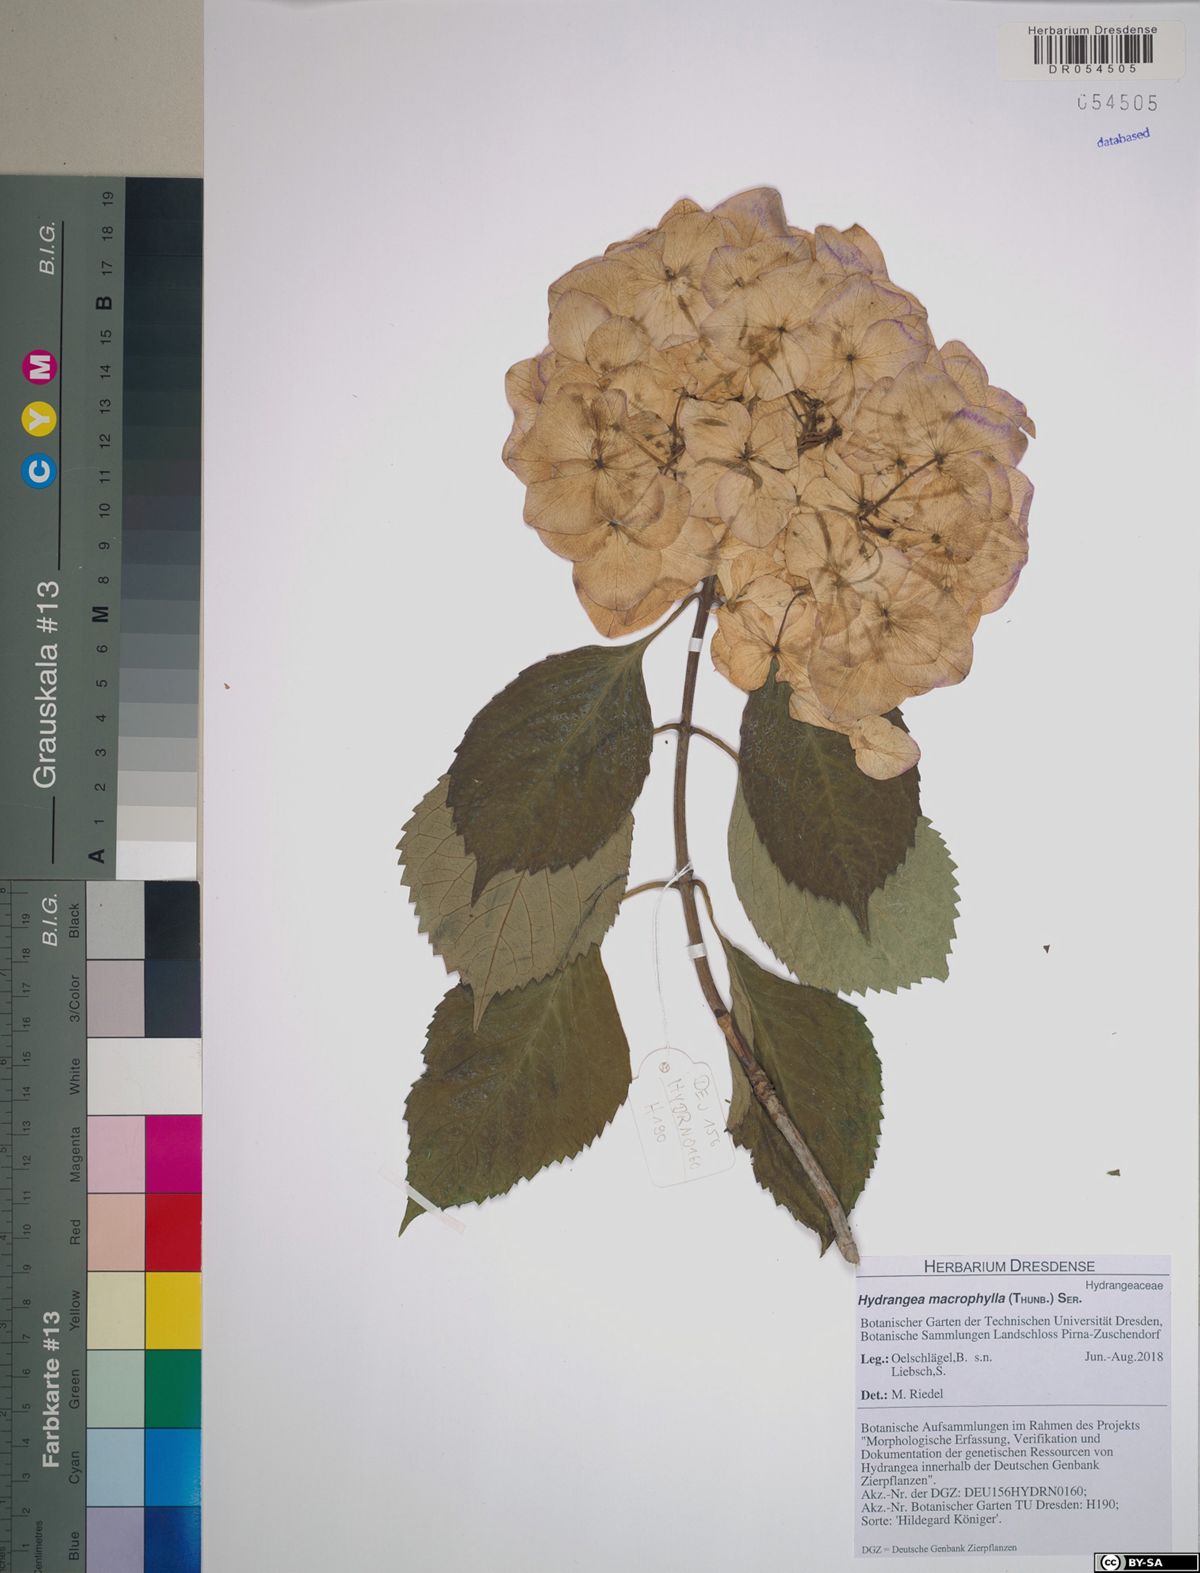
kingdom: Plantae
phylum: Tracheophyta
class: Magnoliopsida
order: Cornales
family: Hydrangeaceae
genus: Hydrangea
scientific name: Hydrangea macrophylla
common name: Hydrangea
